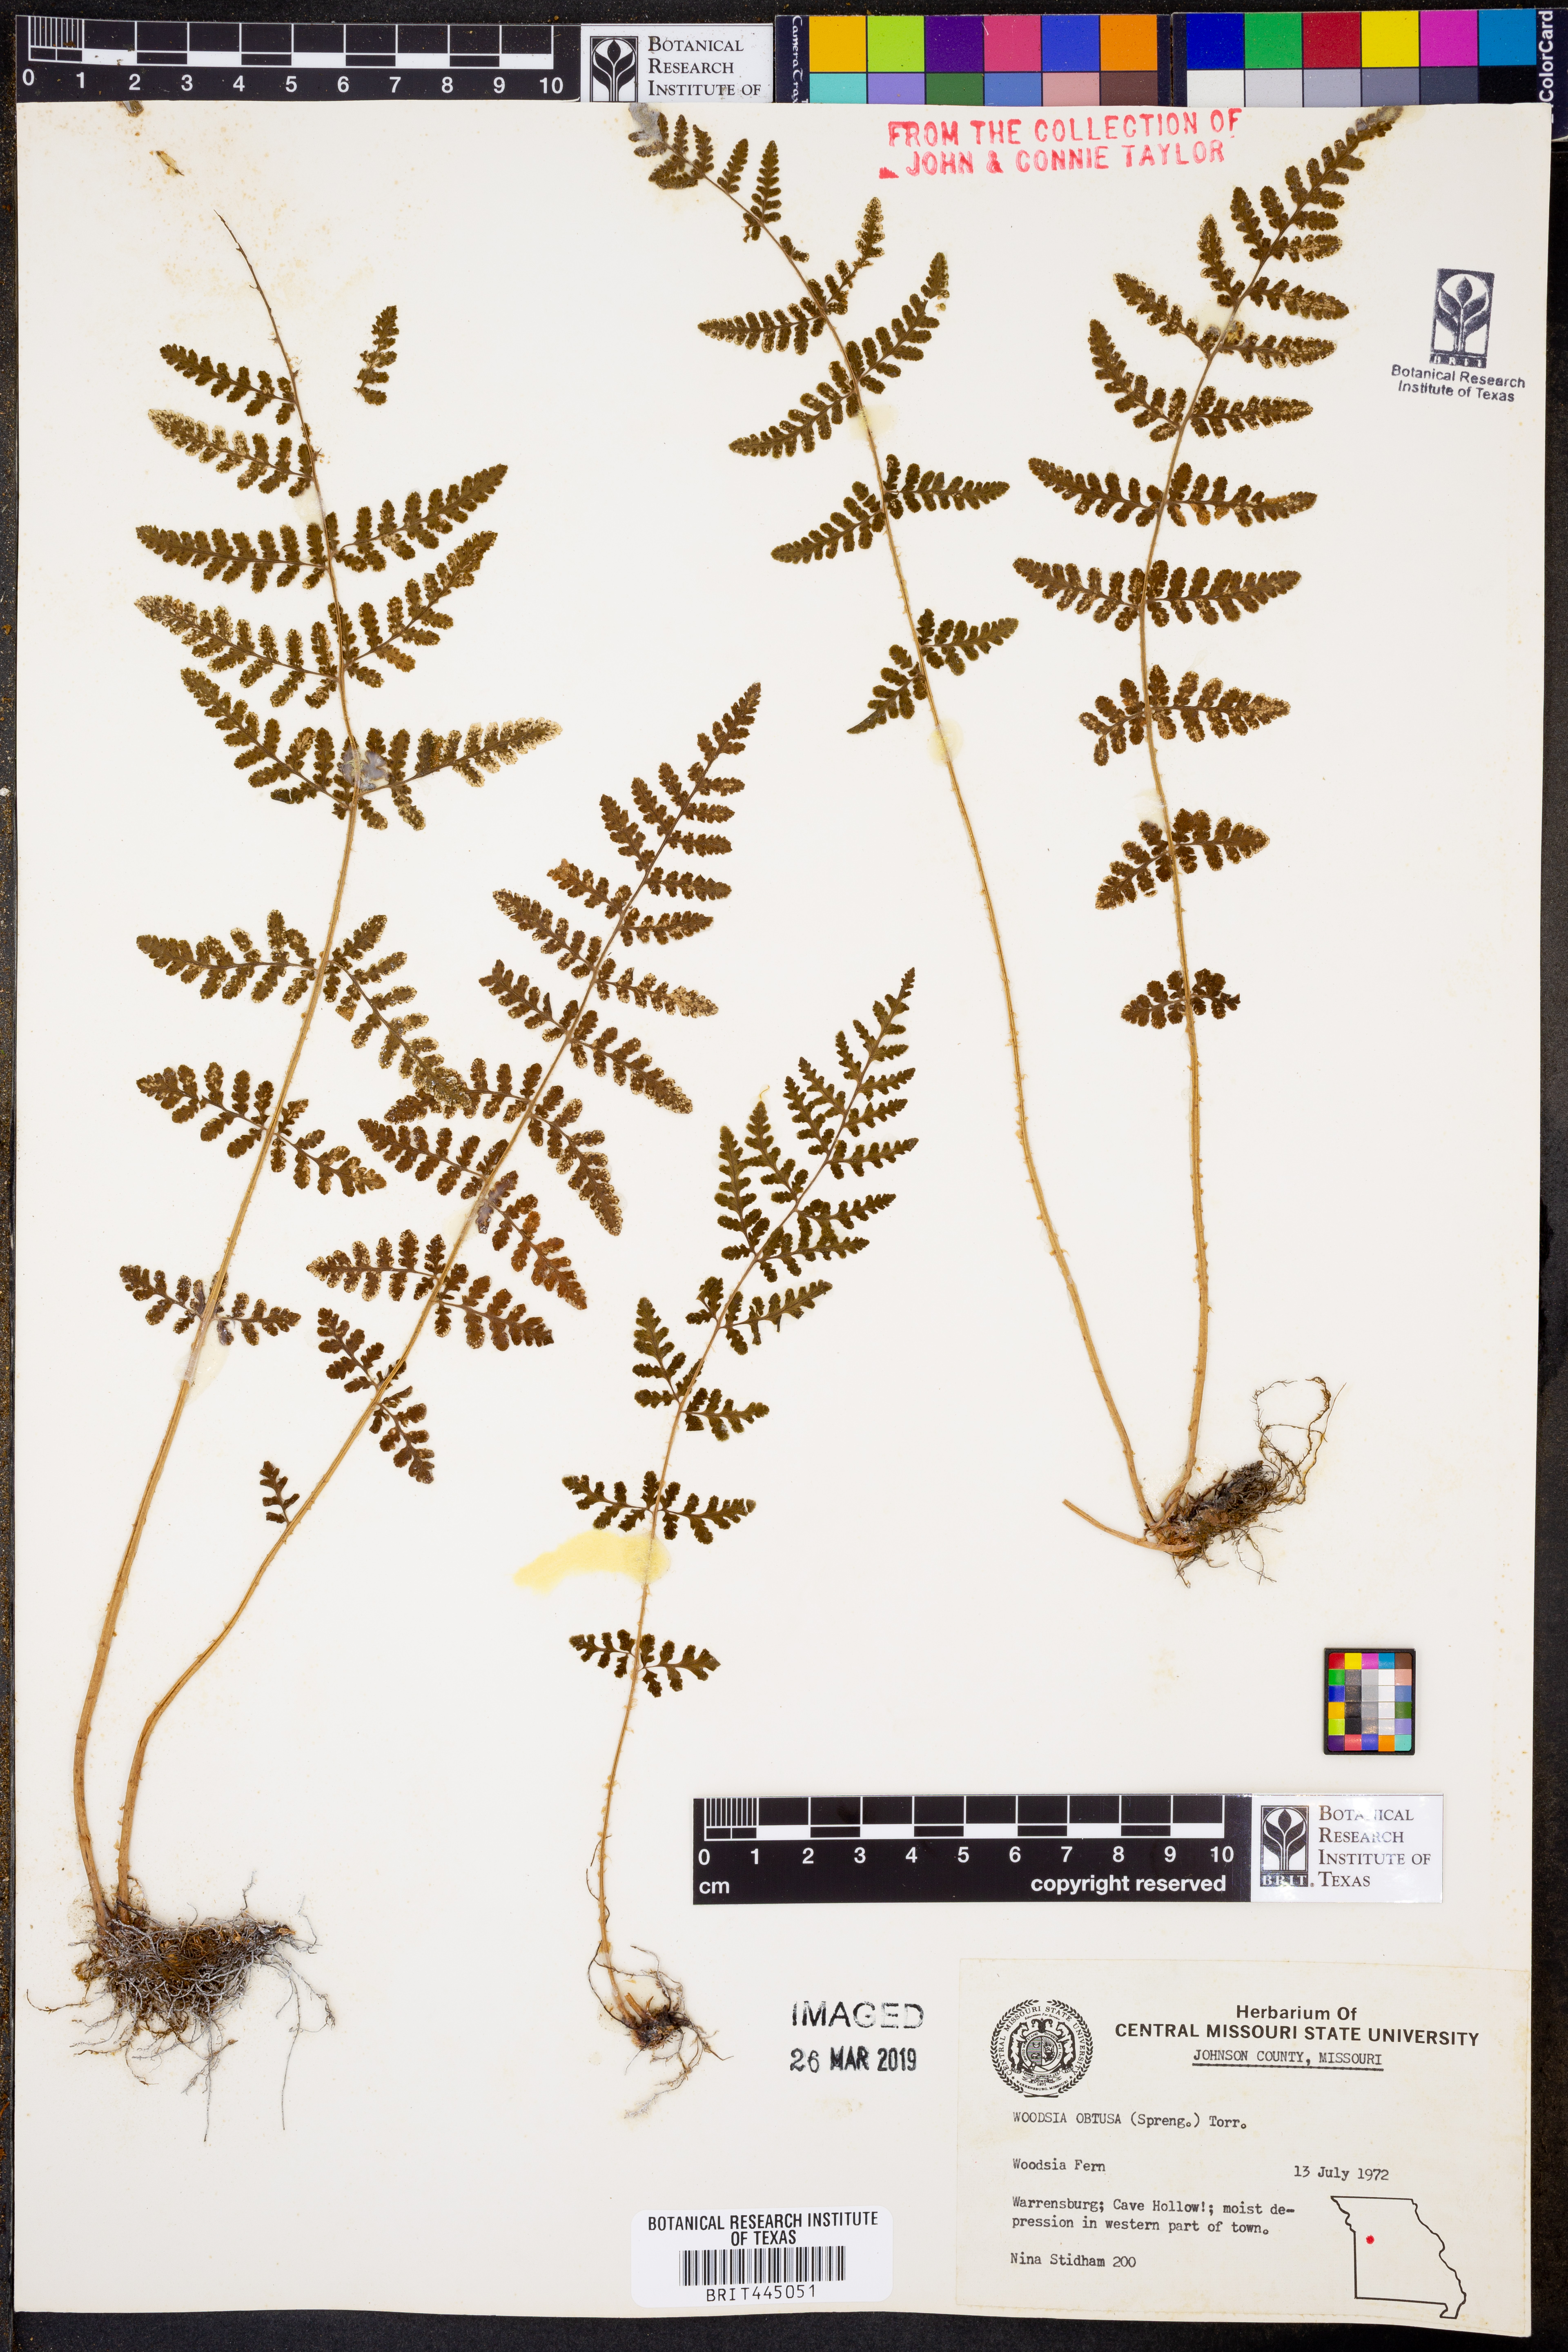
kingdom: Plantae
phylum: Tracheophyta
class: Polypodiopsida
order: Polypodiales
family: Woodsiaceae
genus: Physematium
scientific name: Physematium obtusum
